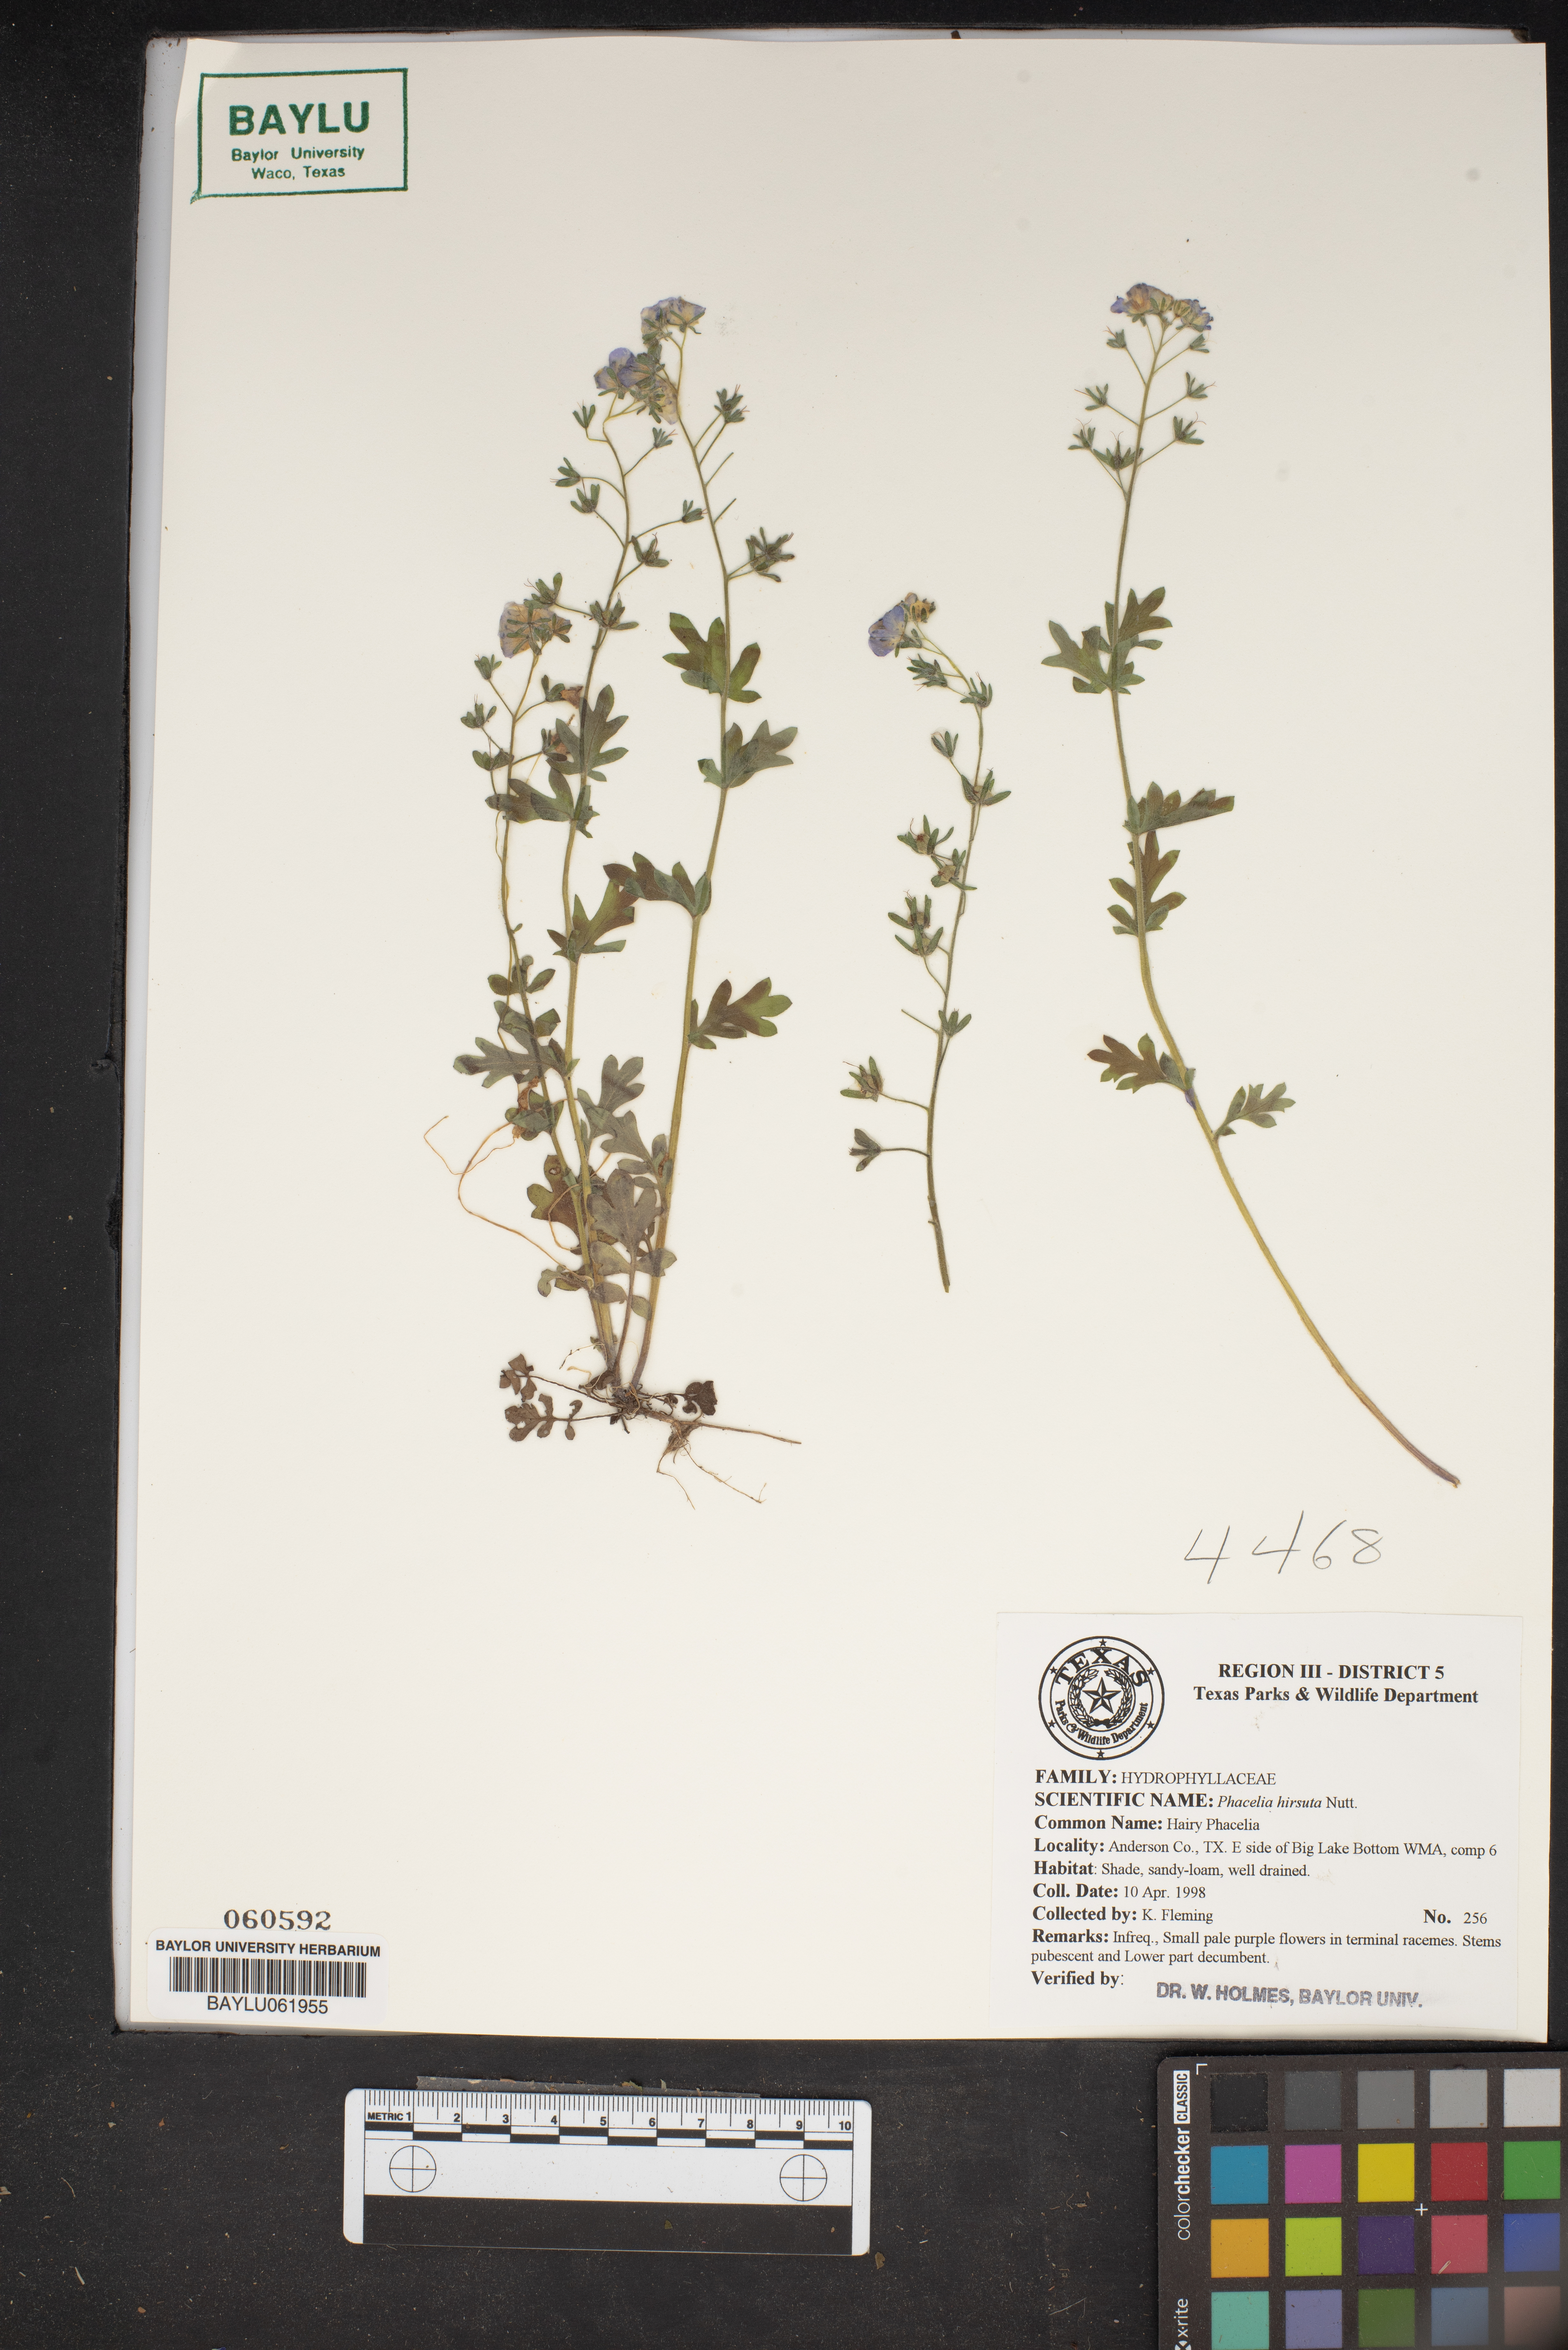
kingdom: Plantae
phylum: Tracheophyta
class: Magnoliopsida
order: Boraginales
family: Hydrophyllaceae
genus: Phacelia
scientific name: Phacelia hirsuta
